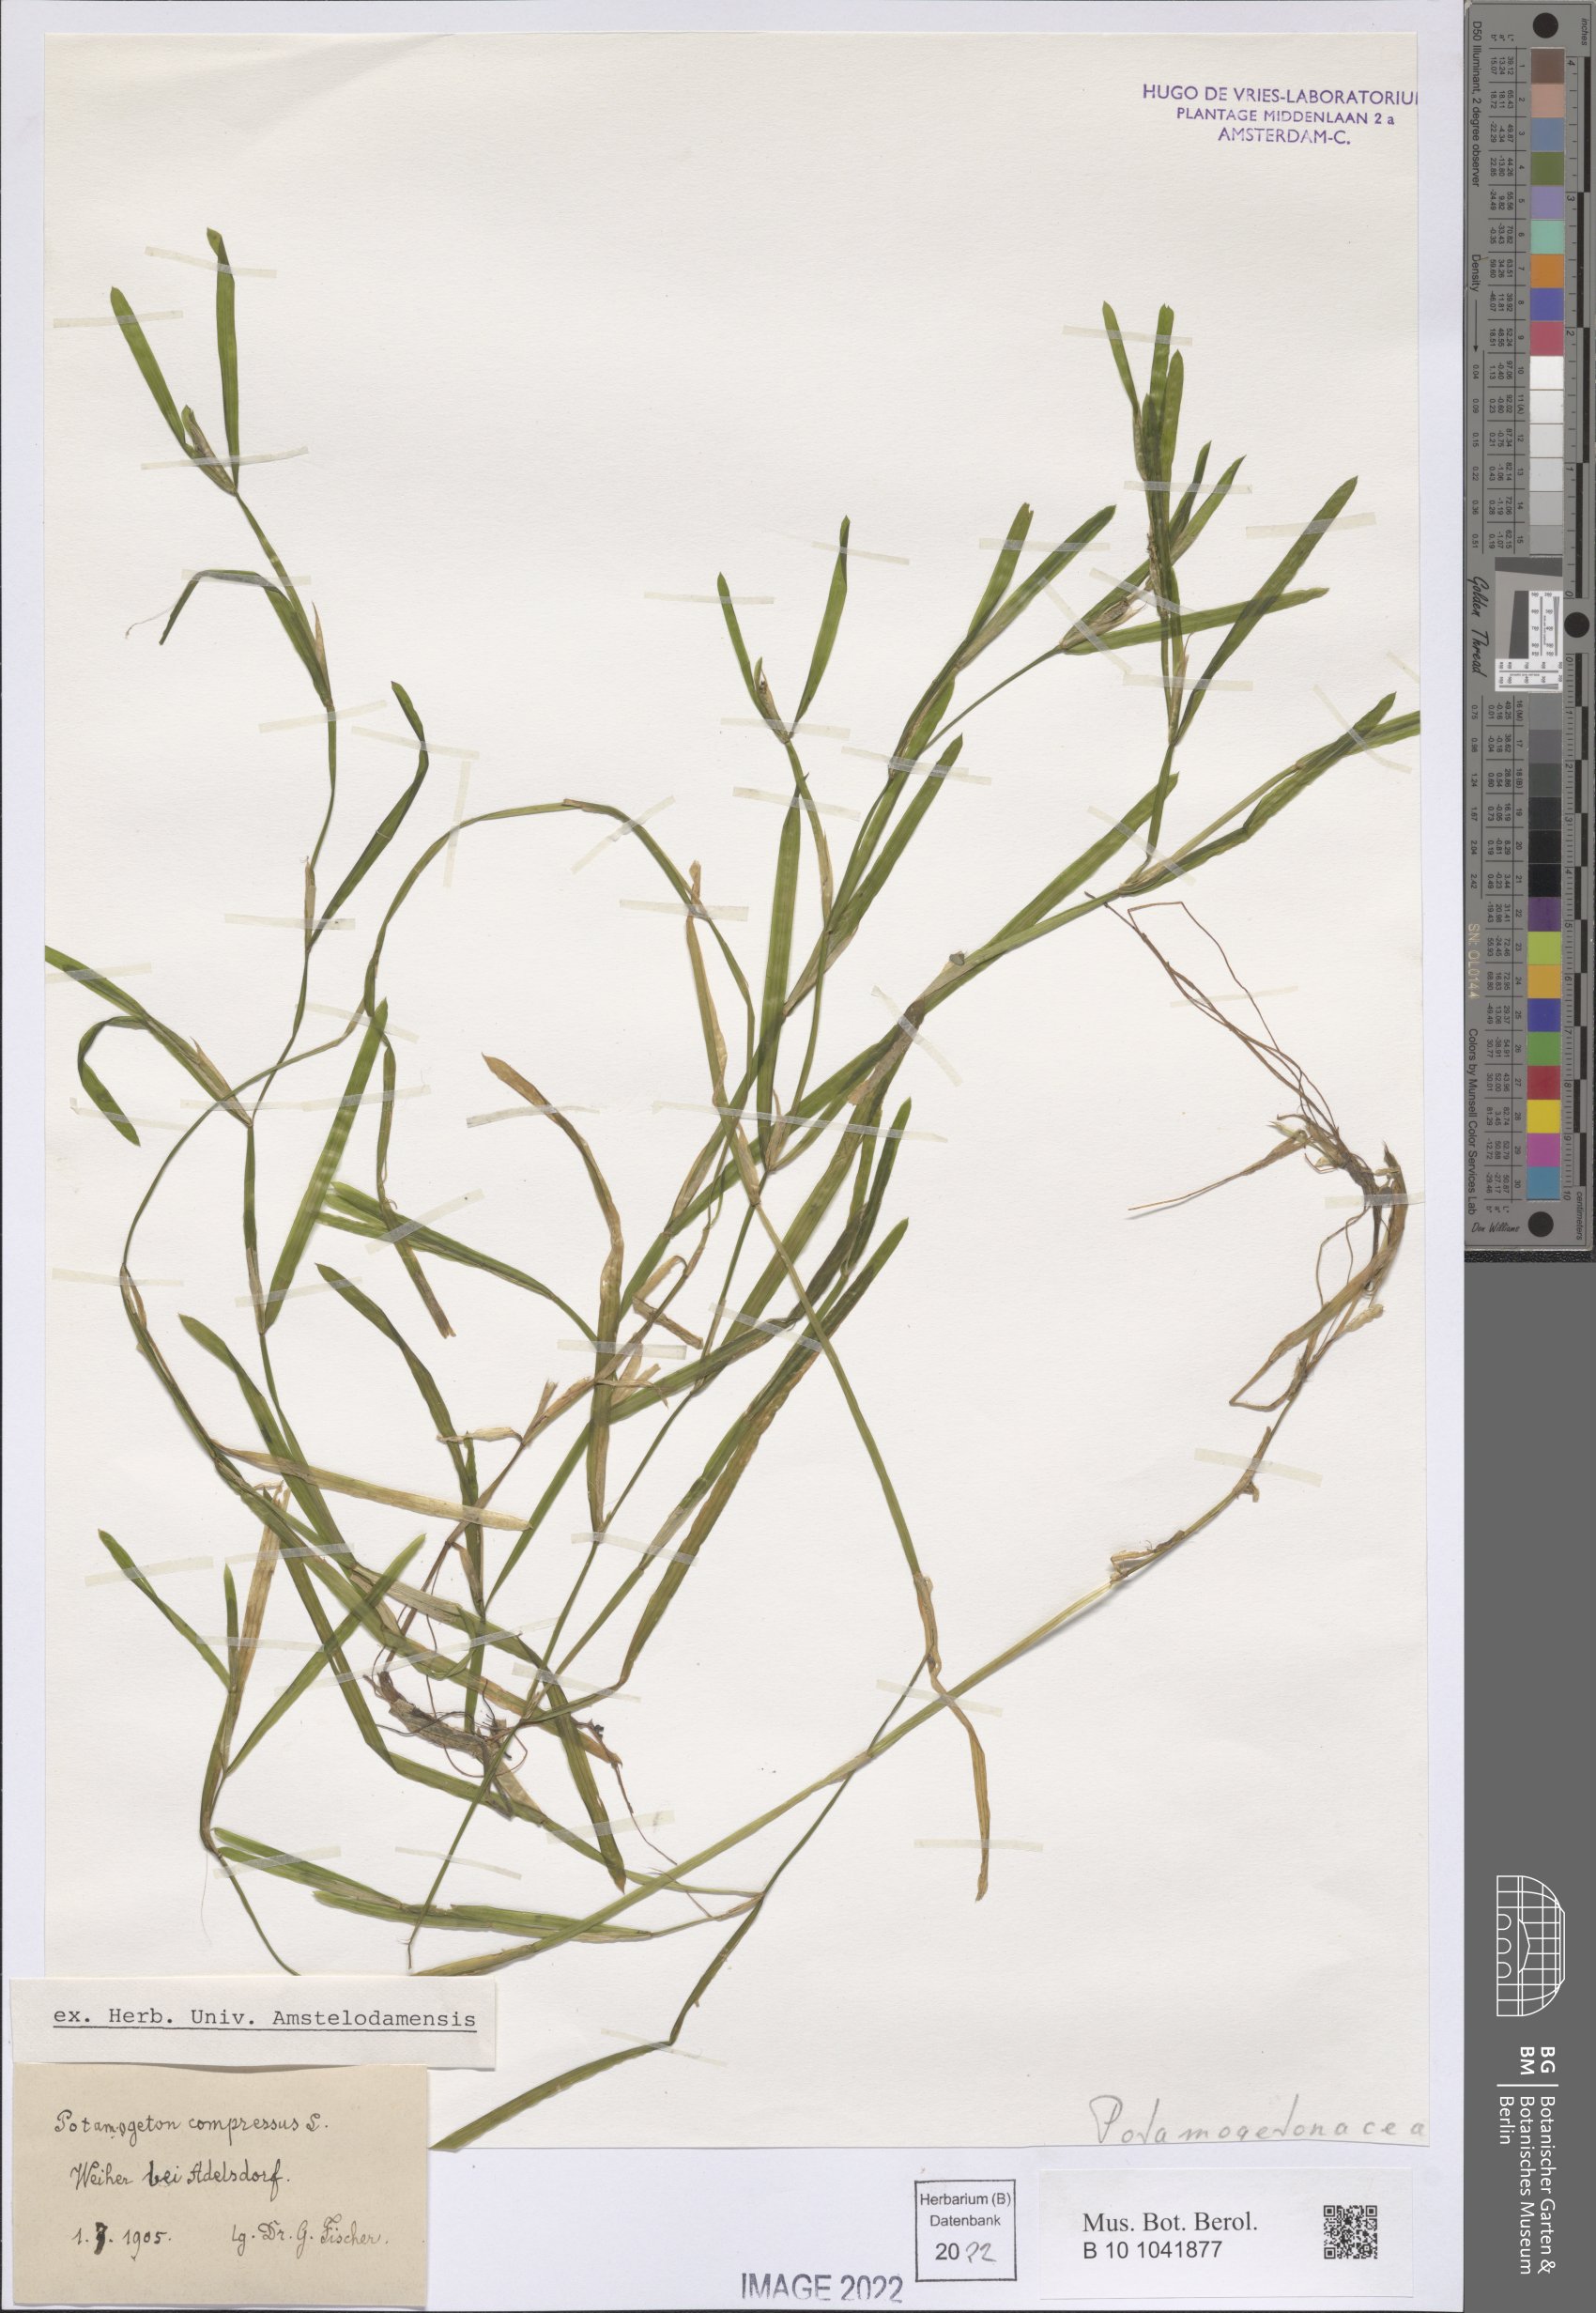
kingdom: Plantae
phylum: Tracheophyta
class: Liliopsida
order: Alismatales
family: Potamogetonaceae
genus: Potamogeton
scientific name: Potamogeton compressus
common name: Grass-wrack pondweed
